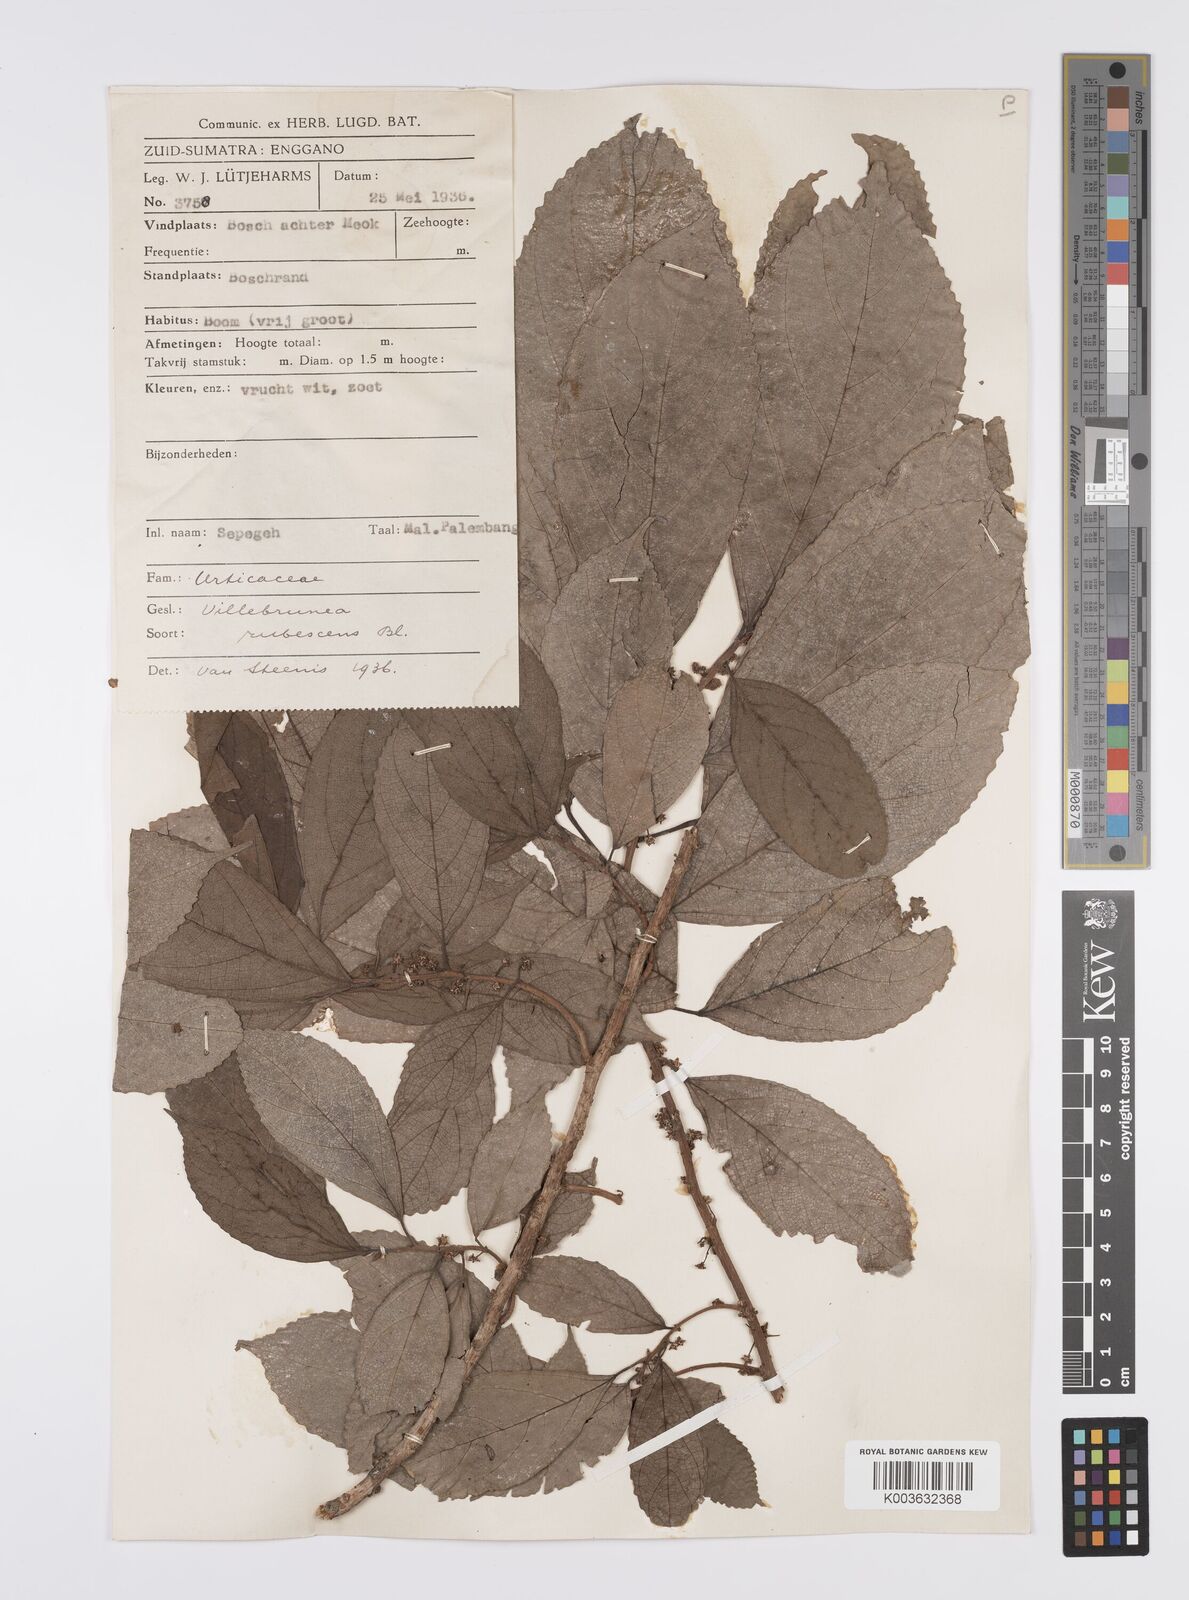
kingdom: Plantae
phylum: Tracheophyta
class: Magnoliopsida
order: Rosales
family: Urticaceae
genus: Oreocnide
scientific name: Oreocnide rubescens
